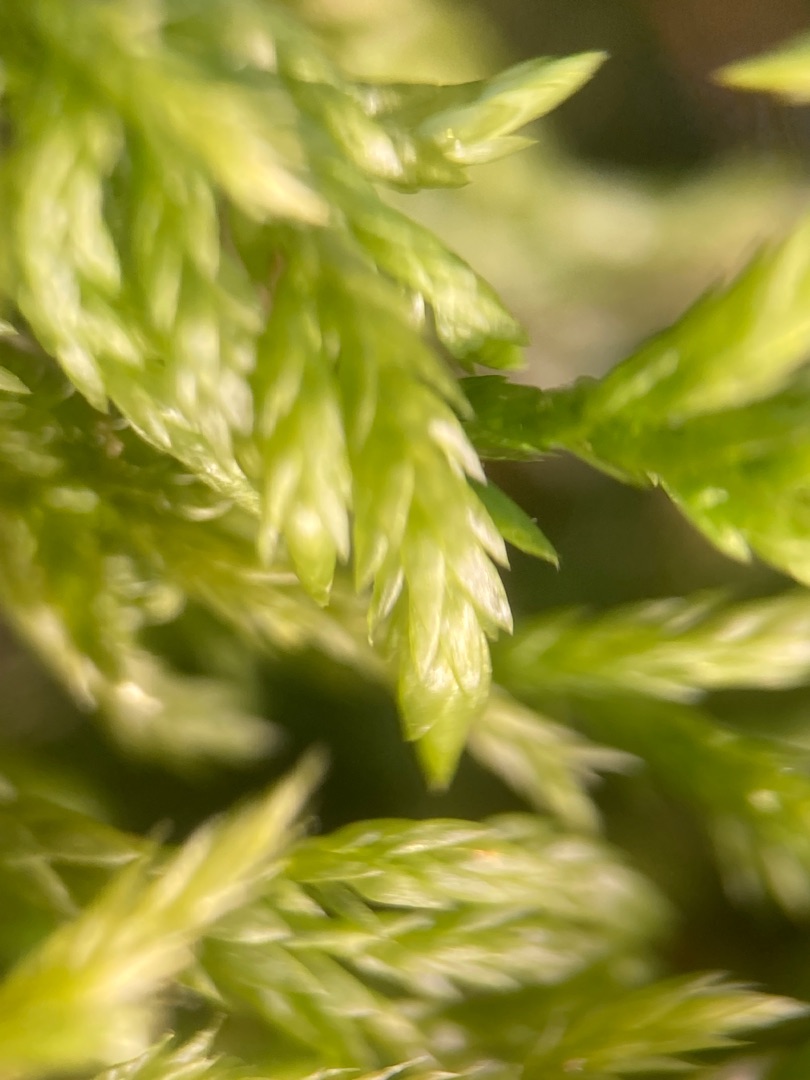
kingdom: Plantae
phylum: Bryophyta
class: Bryopsida
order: Hypnales
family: Lembophyllaceae
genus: Isothecium
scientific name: Isothecium alopecuroides
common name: Stor stammemos
